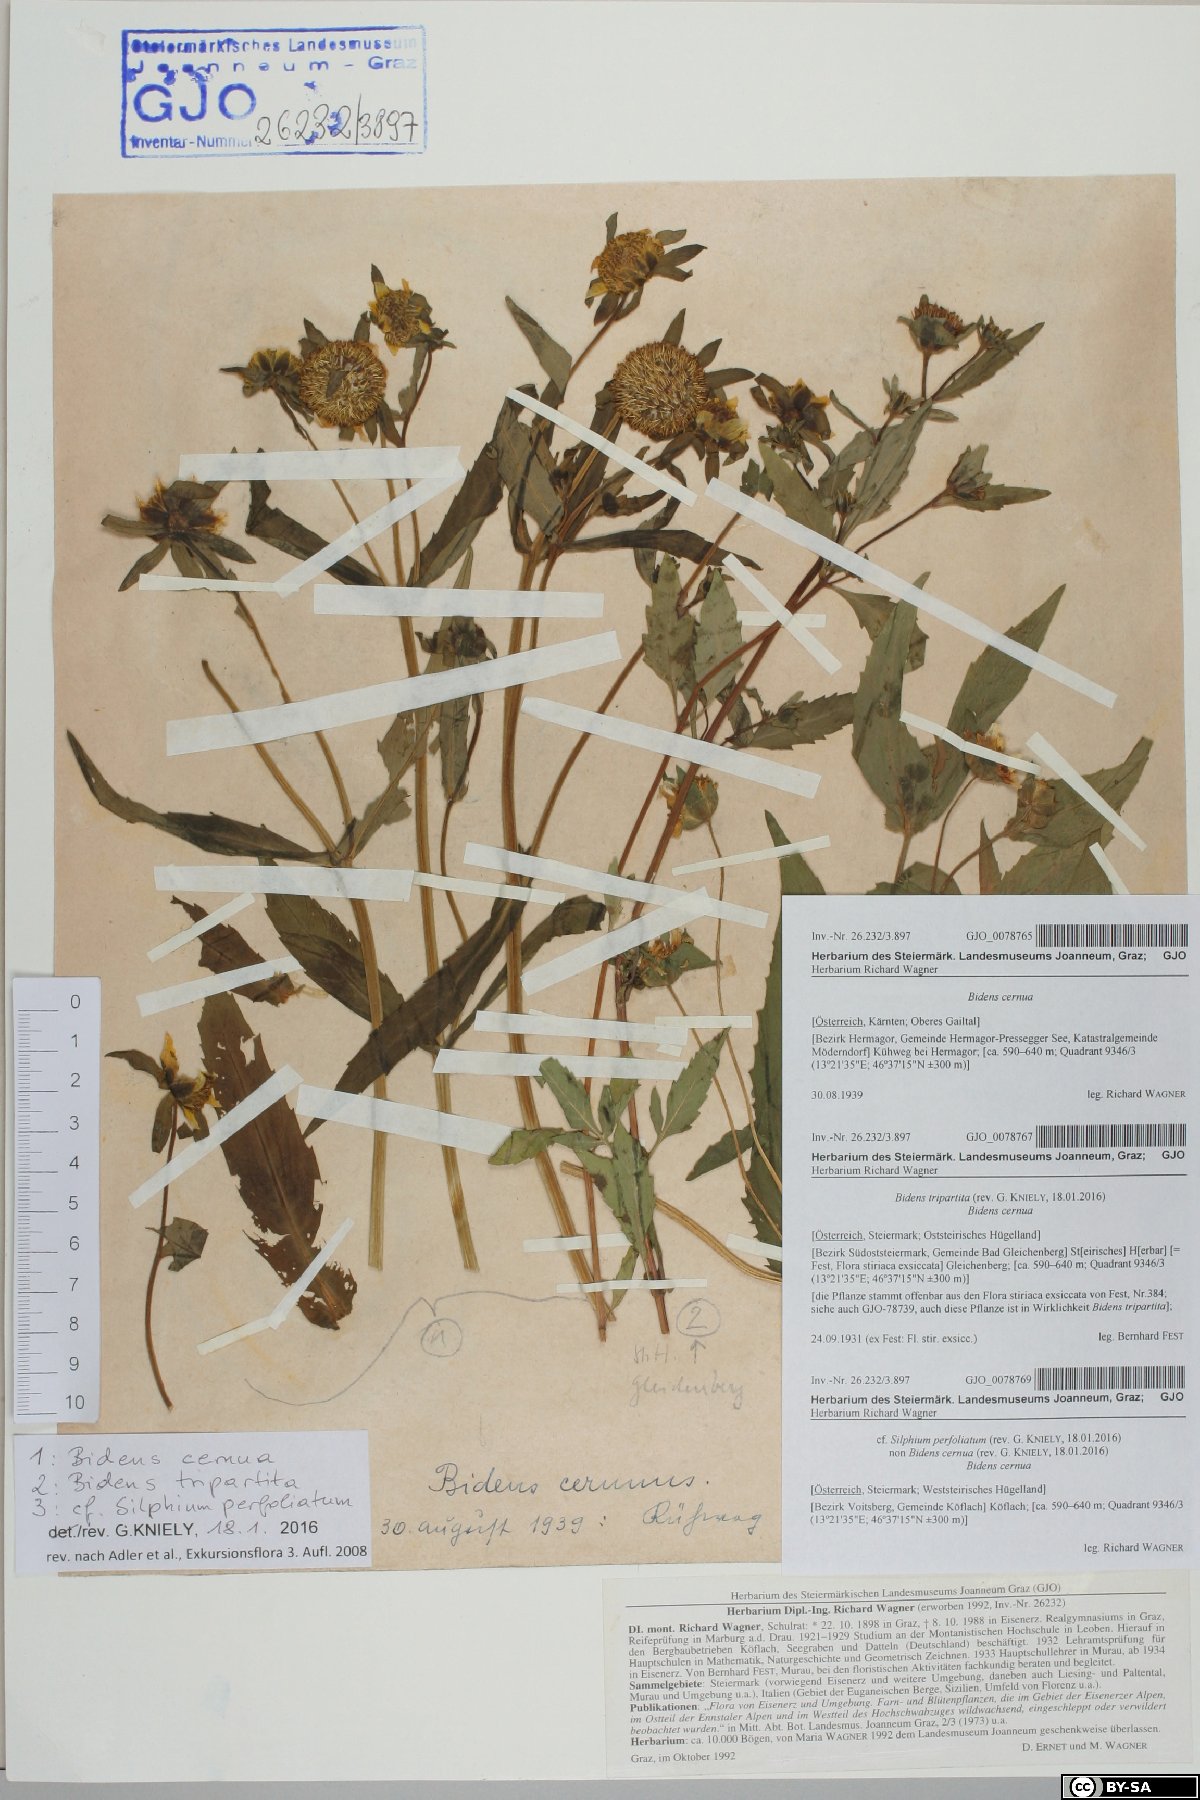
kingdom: Plantae
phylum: Tracheophyta
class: Magnoliopsida
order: Asterales
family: Asteraceae
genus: Bidens
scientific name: Bidens tripartita
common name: Trifid bur-marigold
